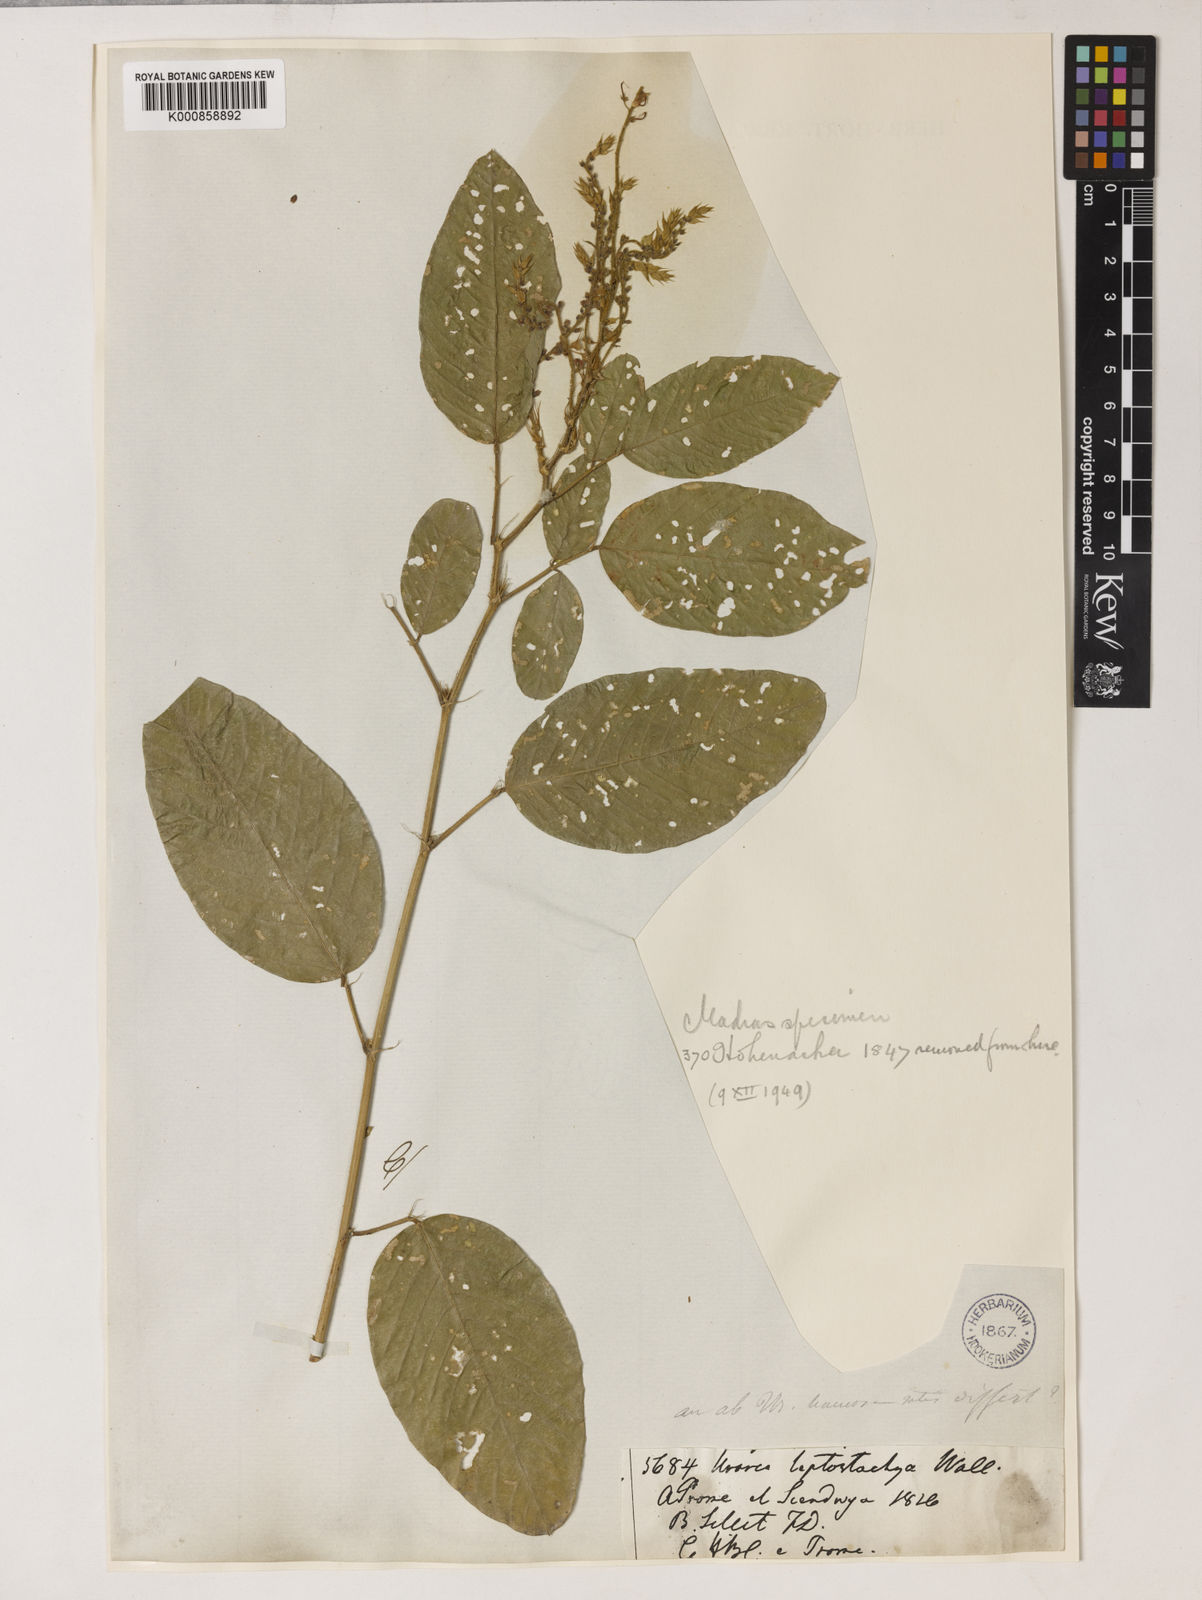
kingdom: Plantae
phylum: Tracheophyta
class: Magnoliopsida
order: Fabales
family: Fabaceae
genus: Uraria
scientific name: Uraria rufescens
